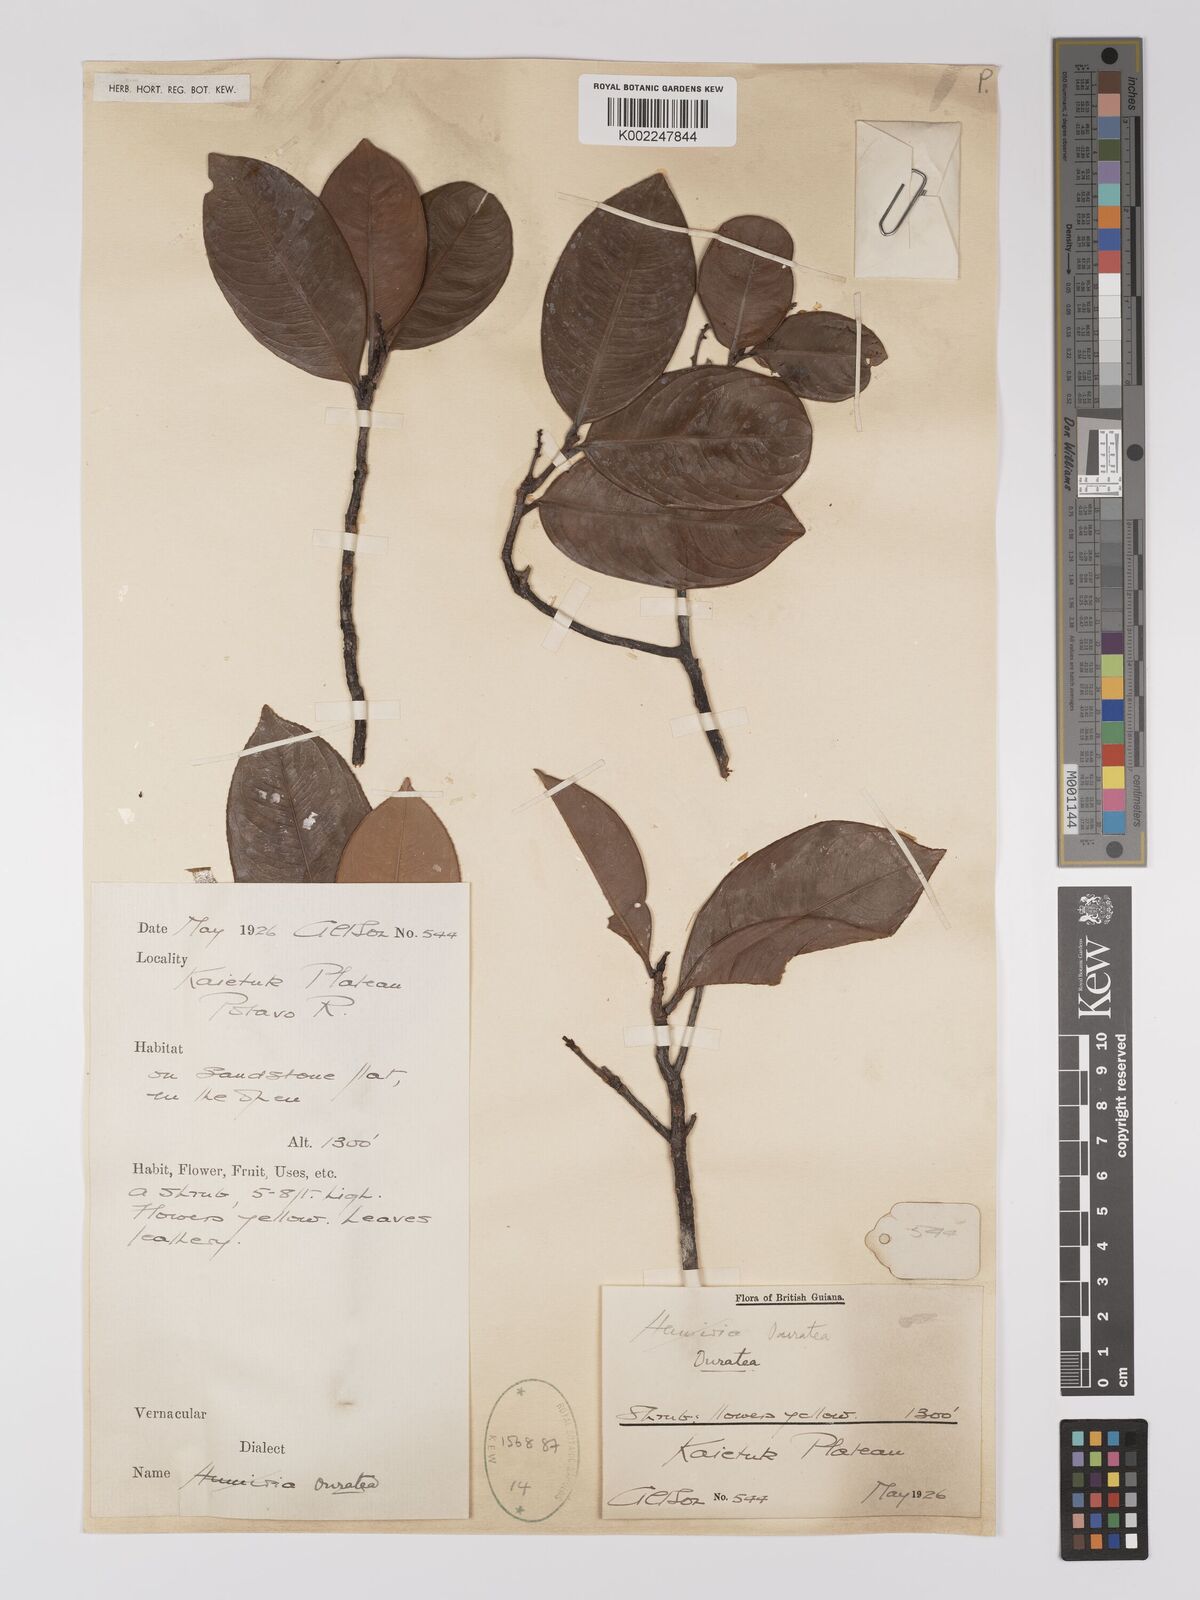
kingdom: Plantae
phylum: Tracheophyta
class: Magnoliopsida
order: Malpighiales
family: Ochnaceae
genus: Ouratea
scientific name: Ouratea
